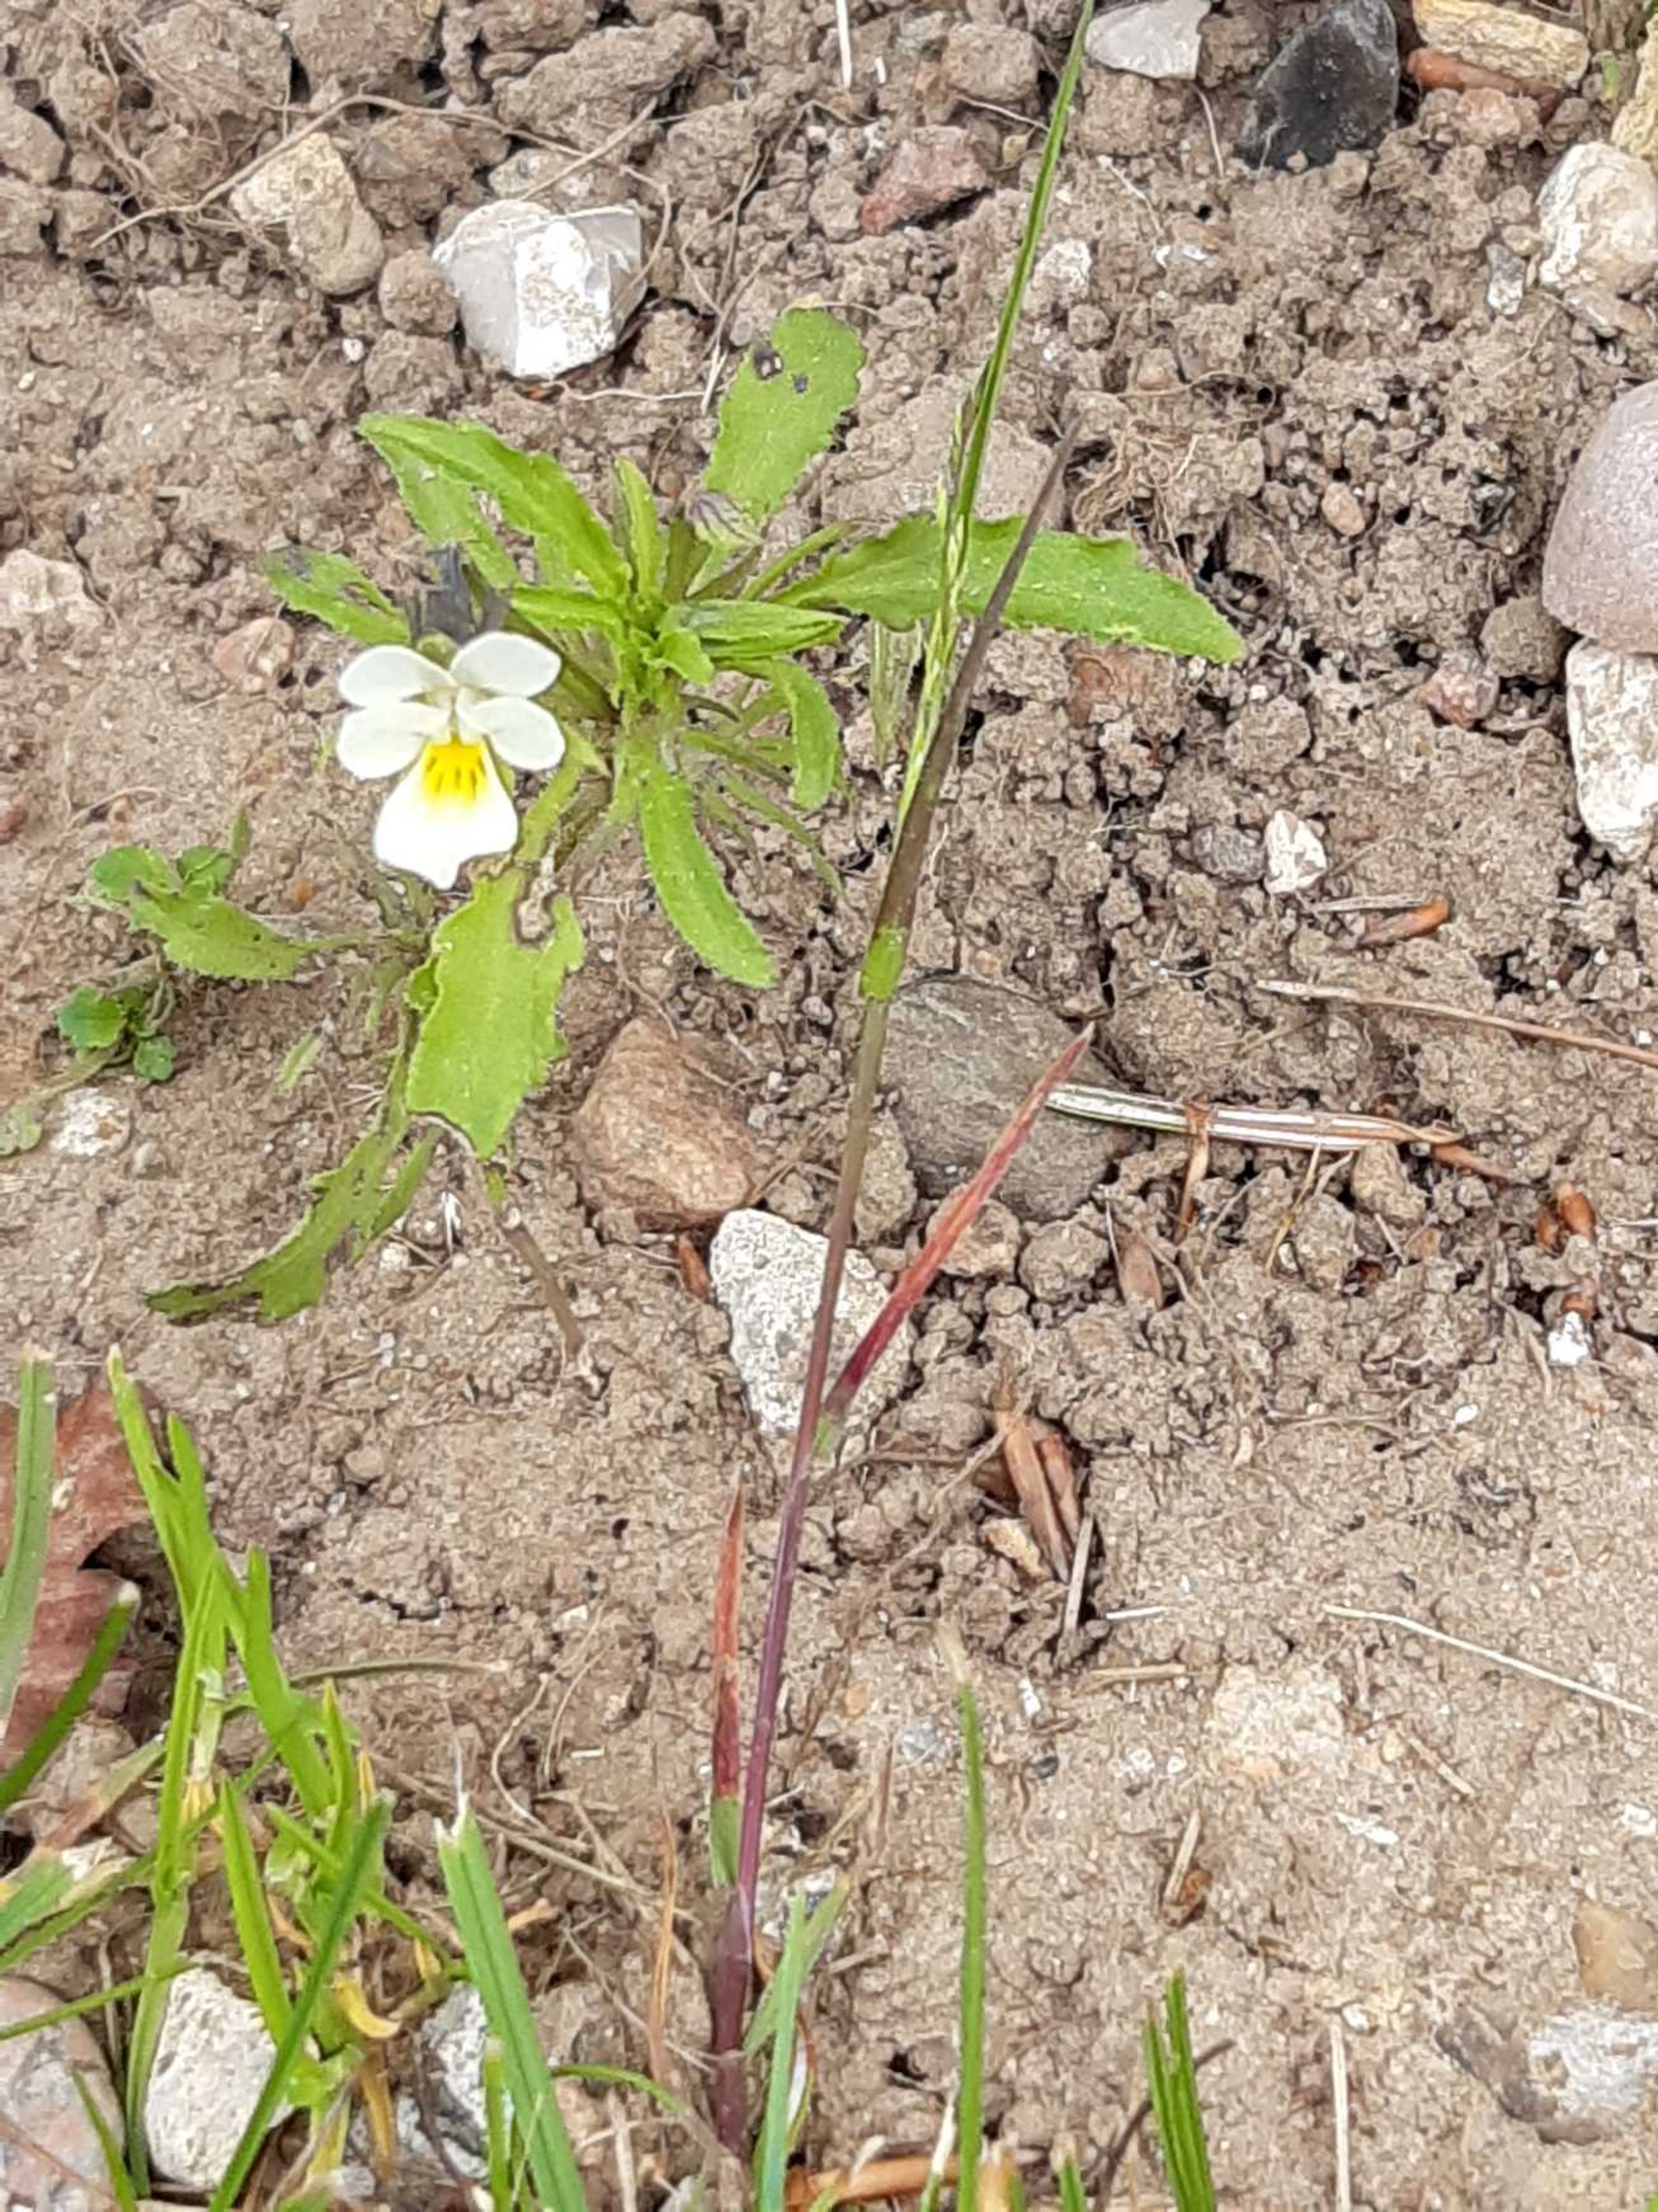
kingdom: Plantae
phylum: Tracheophyta
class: Magnoliopsida
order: Malpighiales
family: Violaceae
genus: Viola
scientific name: Viola arvensis
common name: Ager-stedmoderblomst
